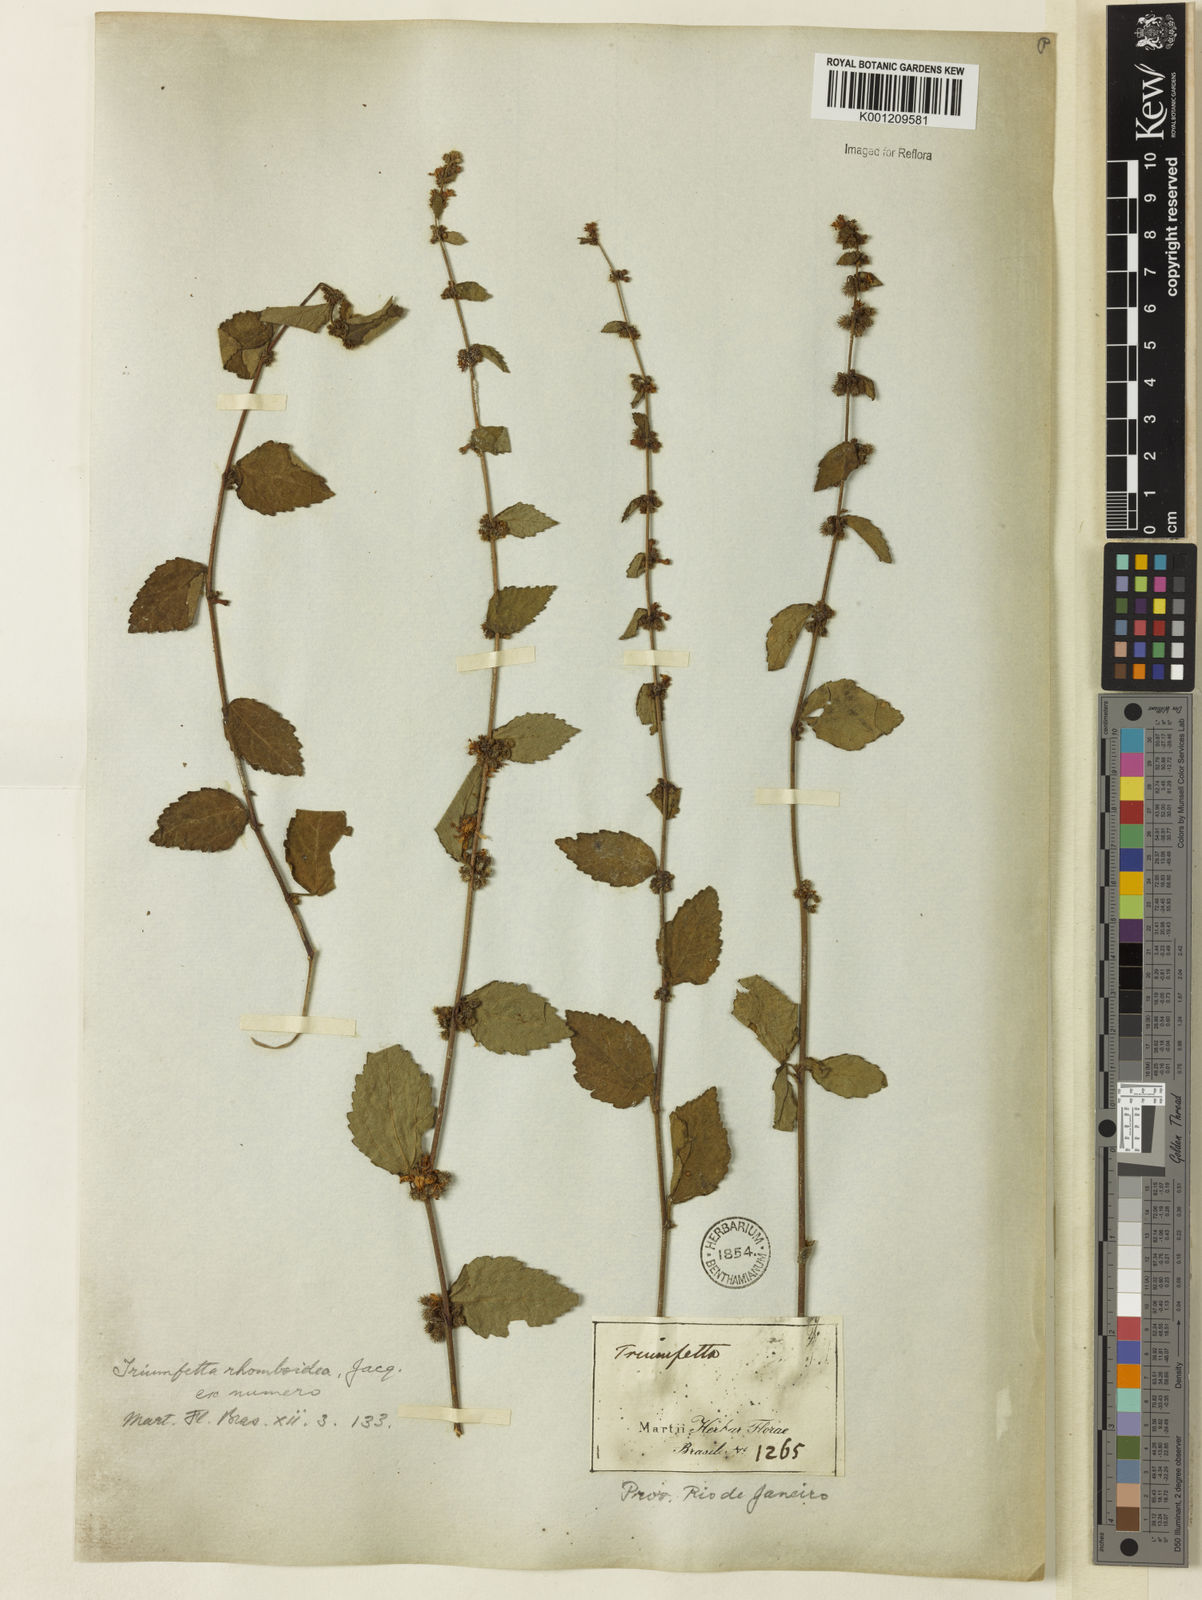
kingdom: Plantae
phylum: Tracheophyta
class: Magnoliopsida
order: Malvales
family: Malvaceae
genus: Triumfetta
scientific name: Triumfetta rhomboidea
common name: Diamond burbark
